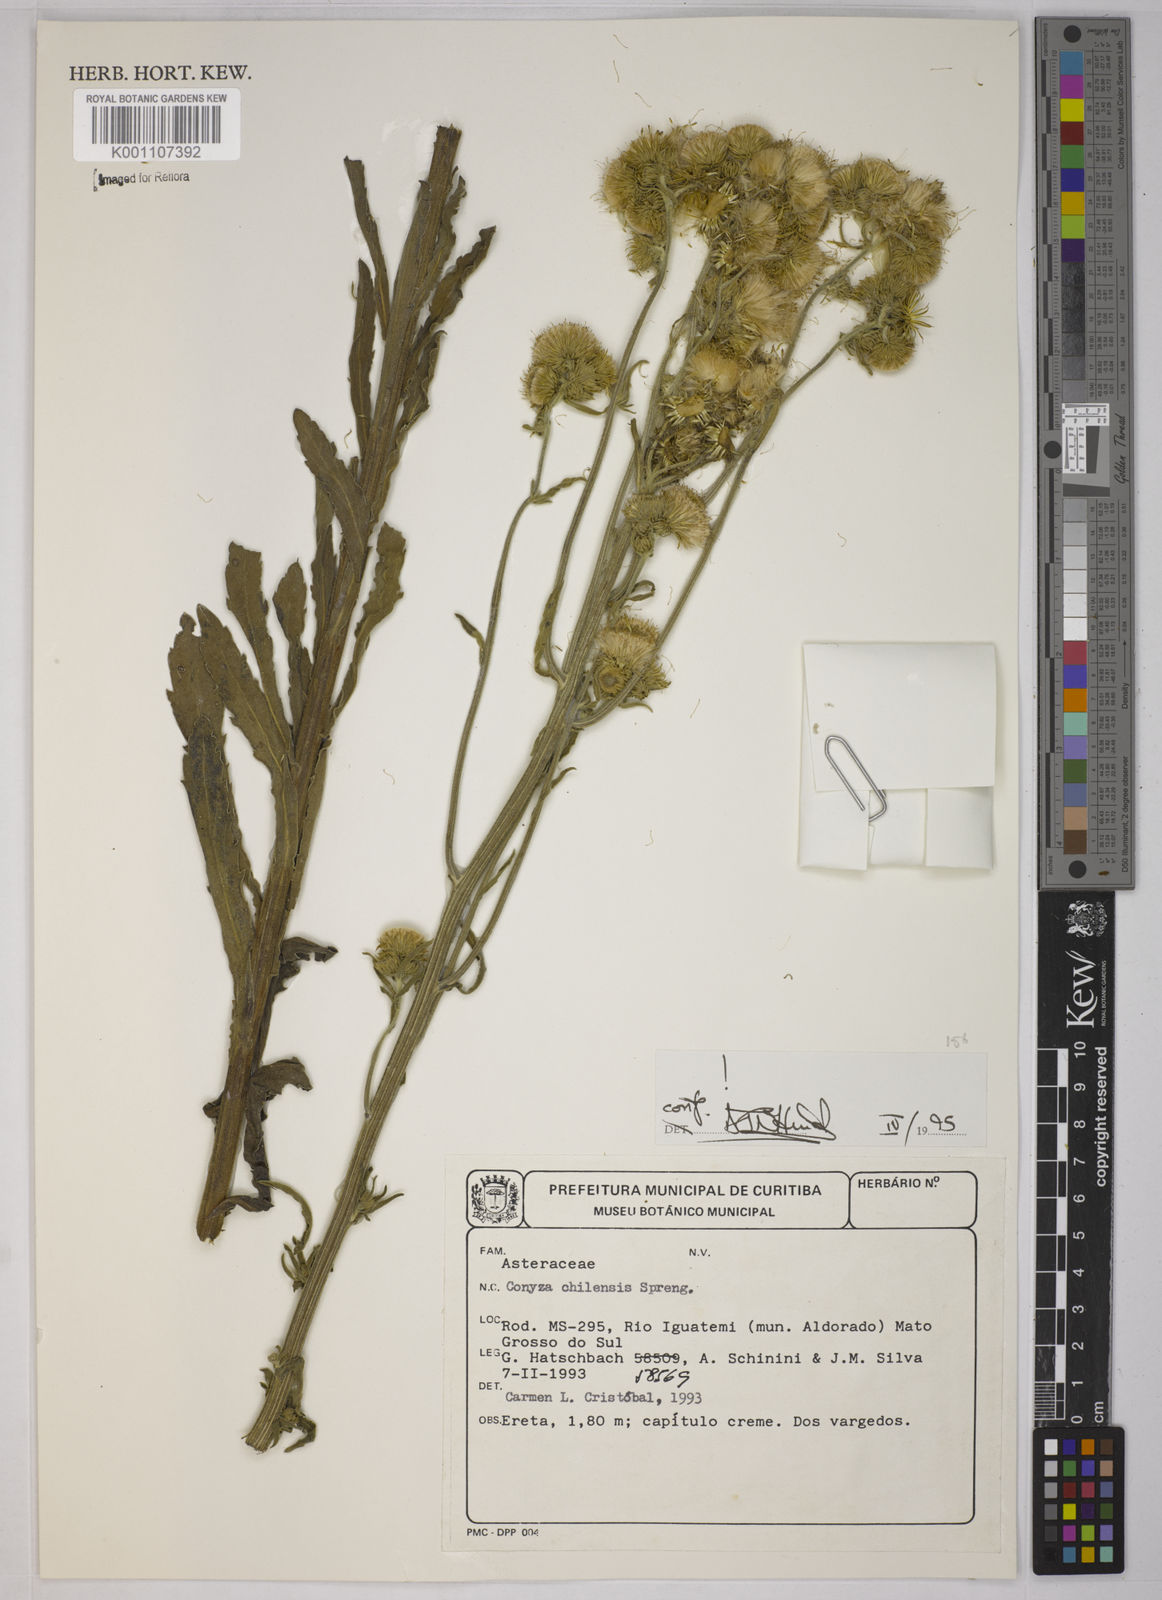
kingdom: Plantae
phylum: Tracheophyta
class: Magnoliopsida
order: Asterales
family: Asteraceae
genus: Erigeron
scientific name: Erigeron primulifolius
